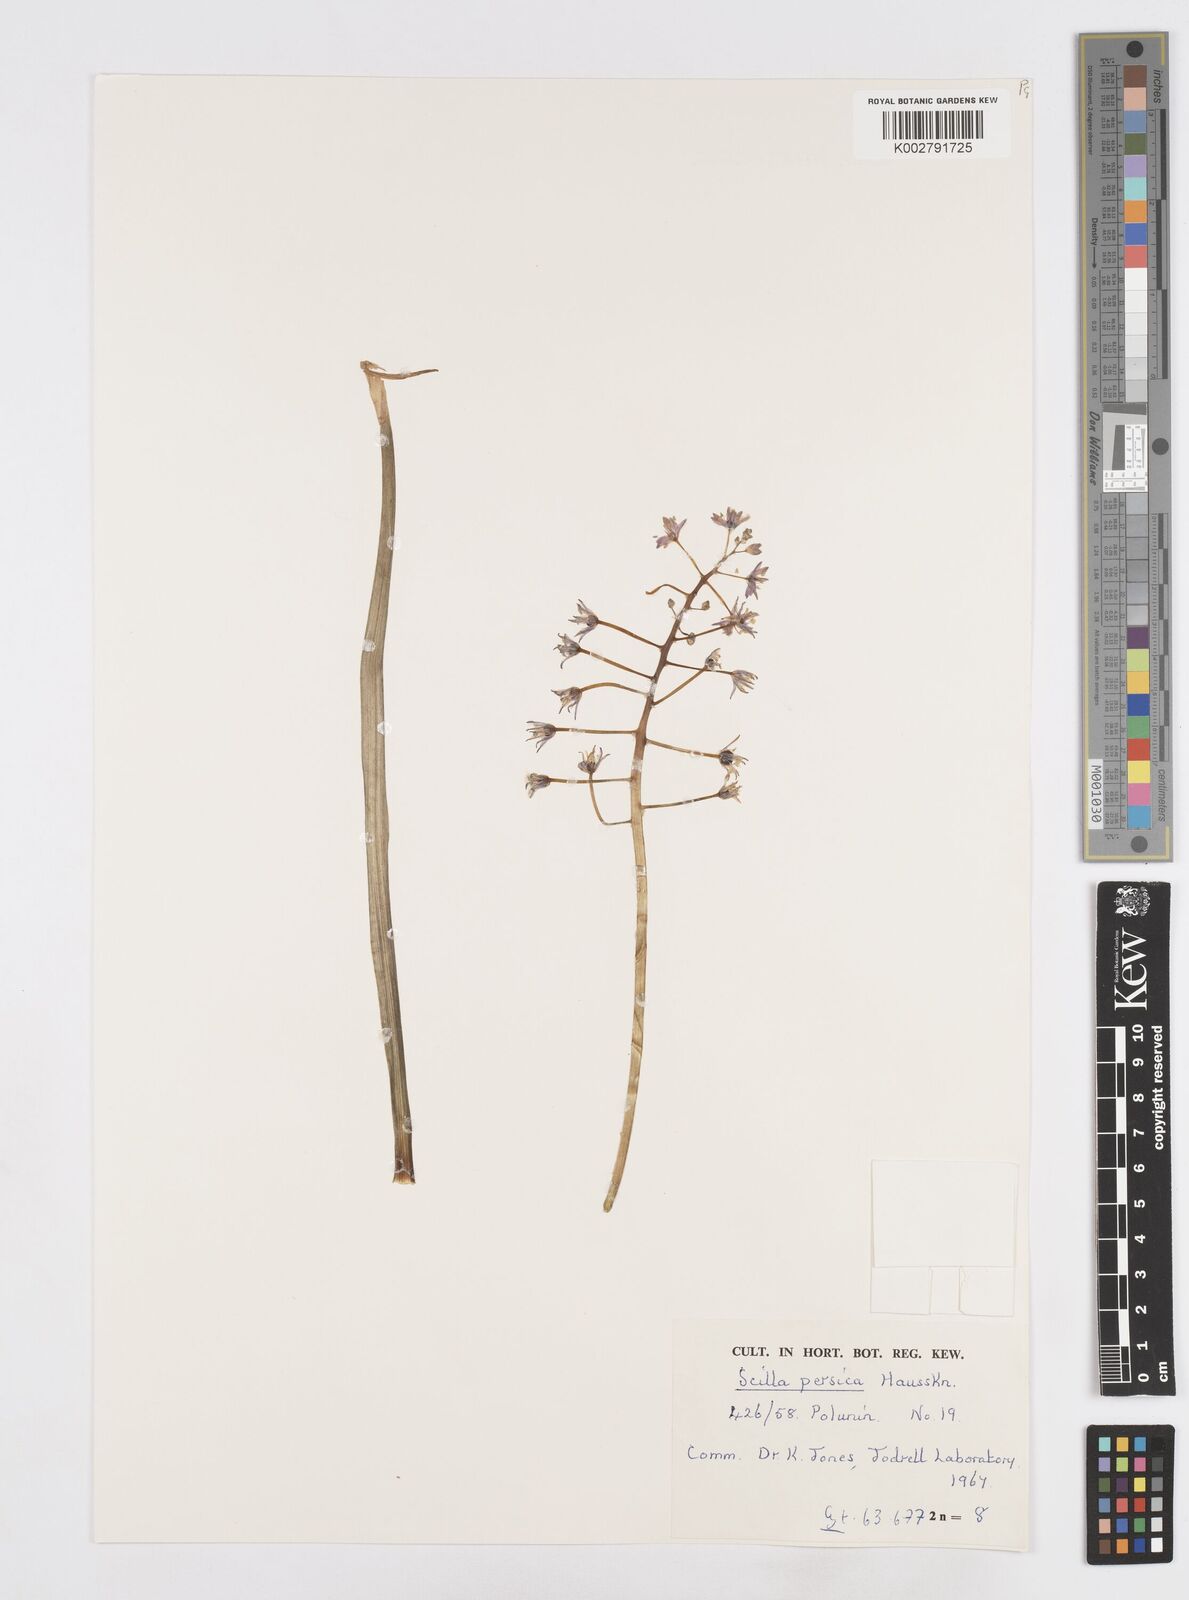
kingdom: Plantae
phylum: Tracheophyta
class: Liliopsida
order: Asparagales
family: Asparagaceae
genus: Zagrosia
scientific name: Zagrosia persica
